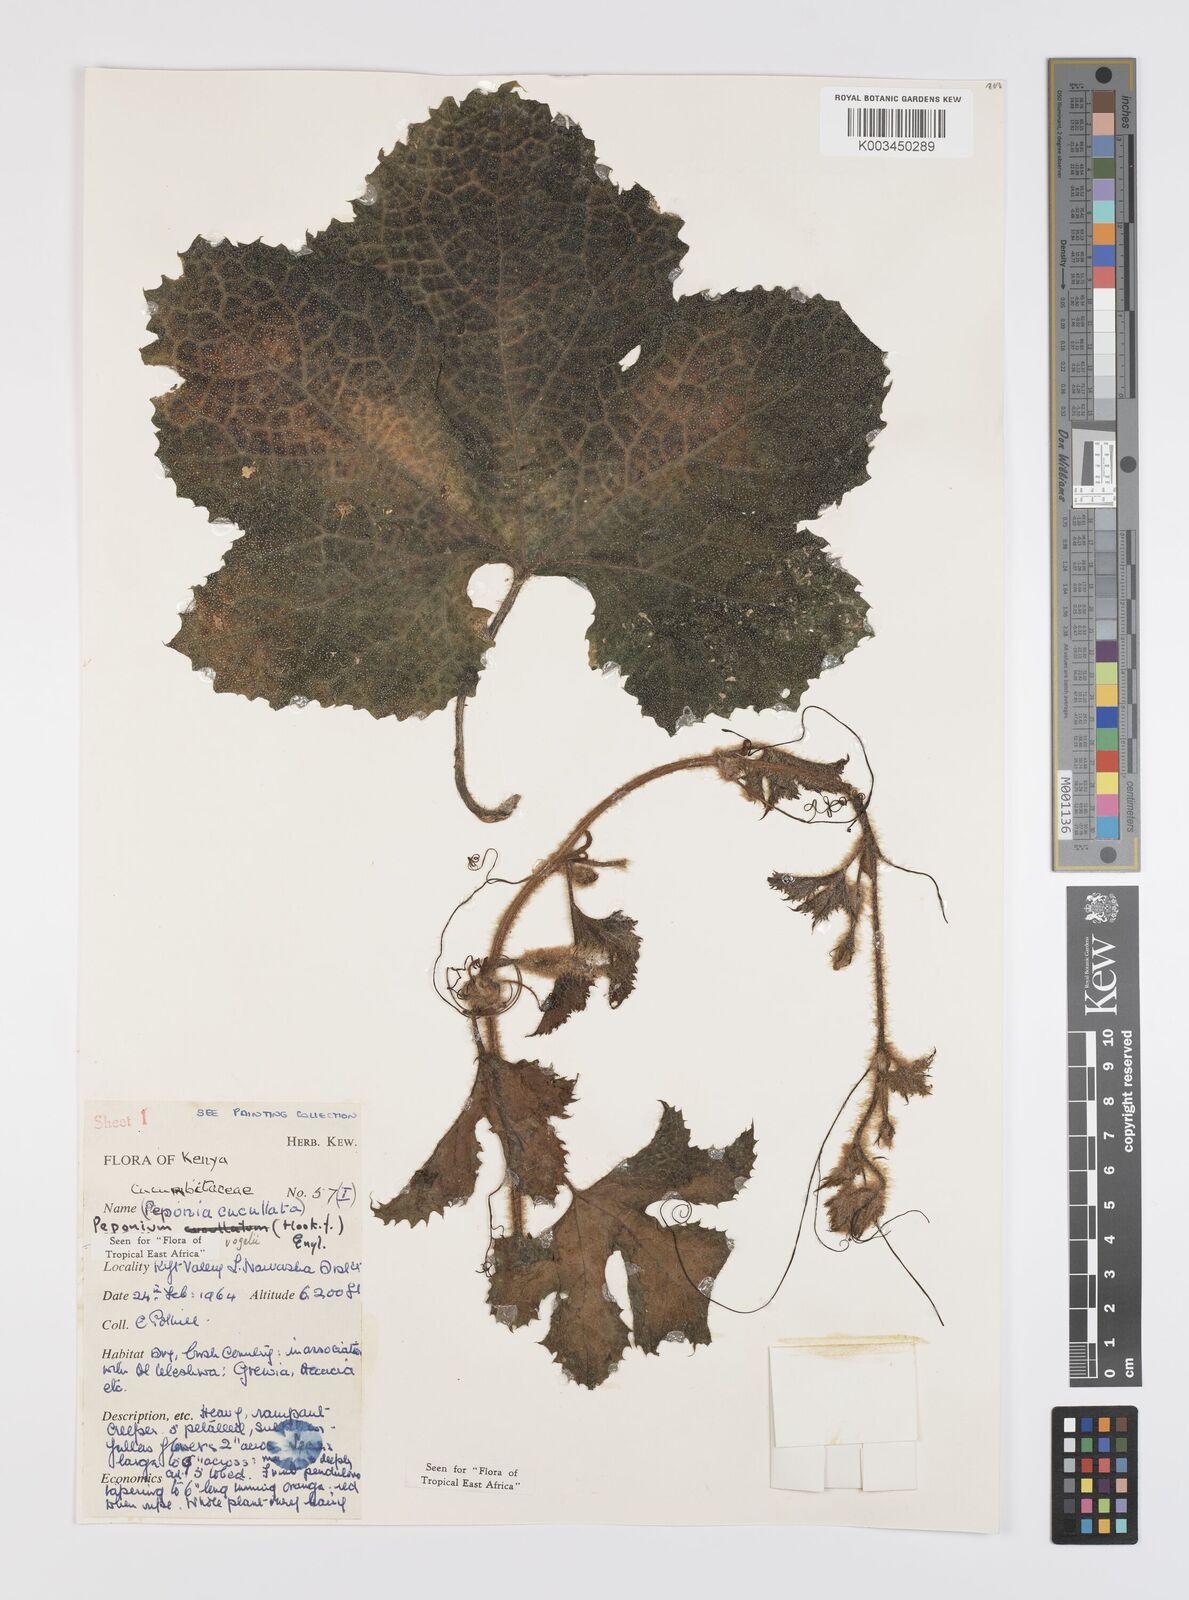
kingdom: Plantae
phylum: Tracheophyta
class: Magnoliopsida
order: Cucurbitales
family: Cucurbitaceae
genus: Peponium
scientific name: Peponium vogelii
